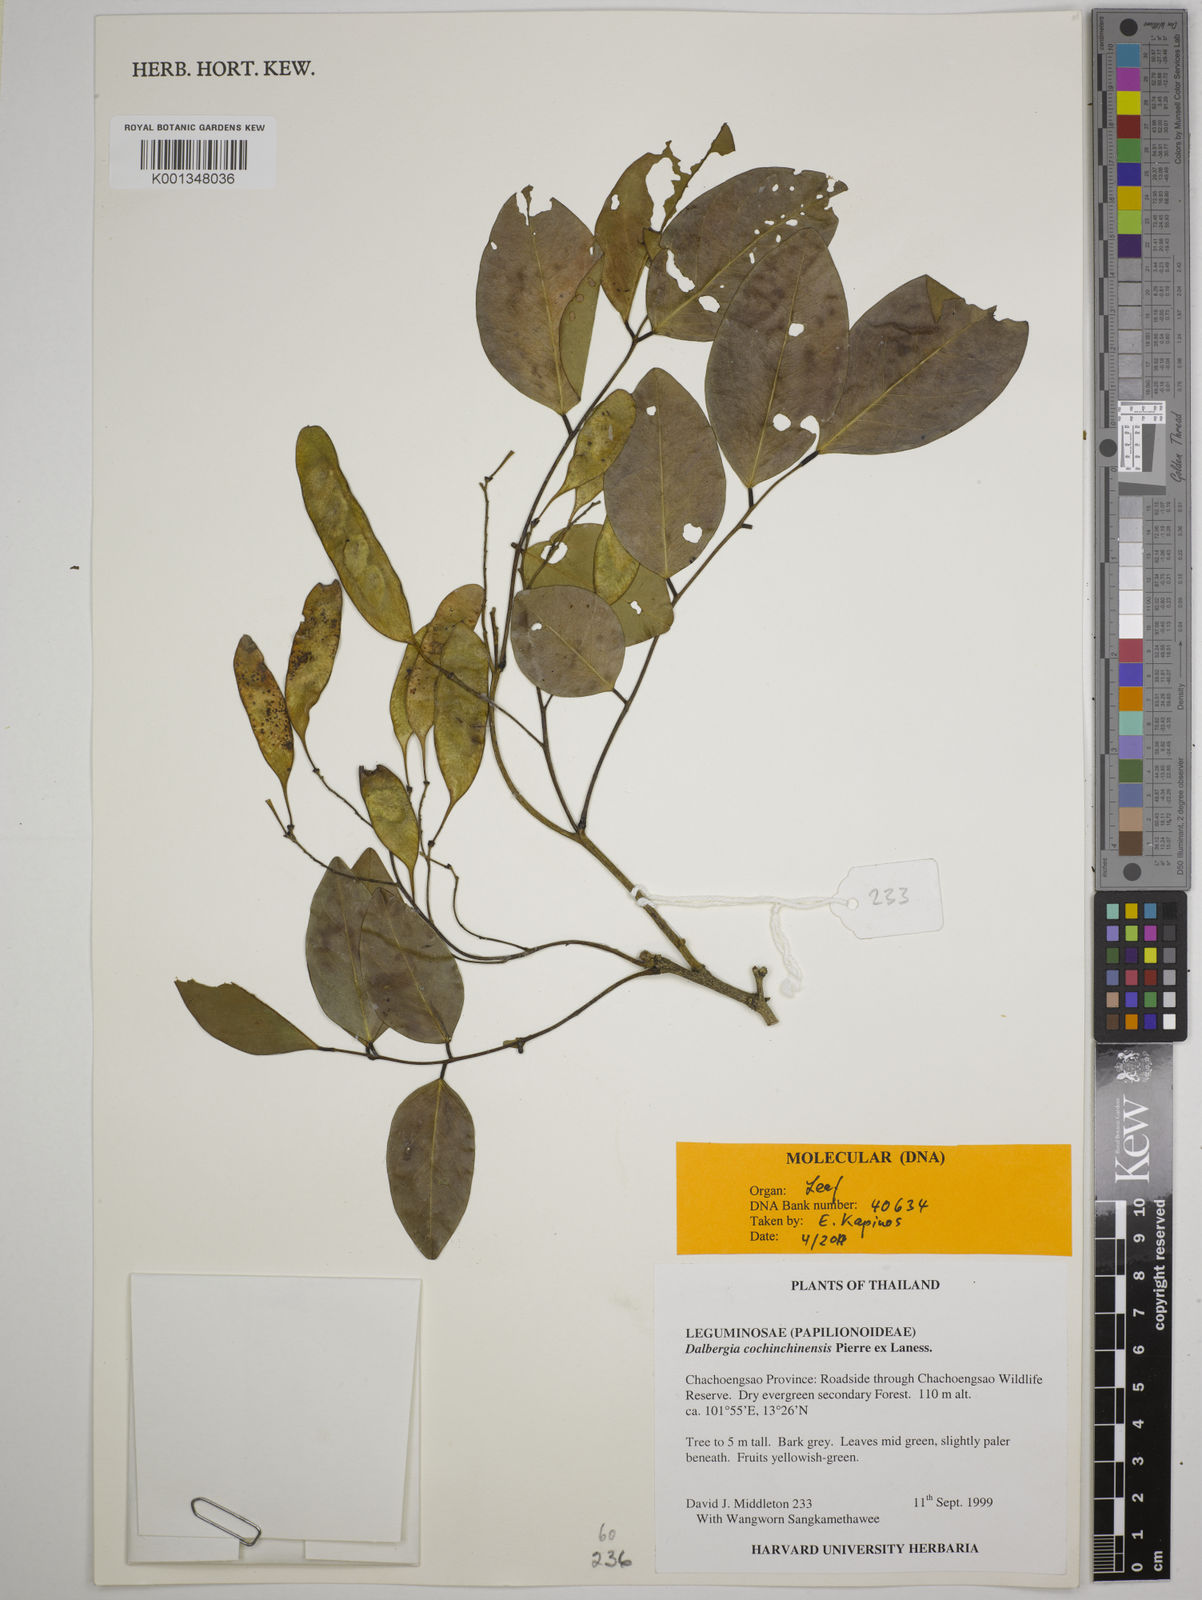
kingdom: Plantae
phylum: Tracheophyta
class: Magnoliopsida
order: Fabales
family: Fabaceae
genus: Dalbergia
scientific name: Dalbergia cochinchinensis
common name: Siamese rosewood
